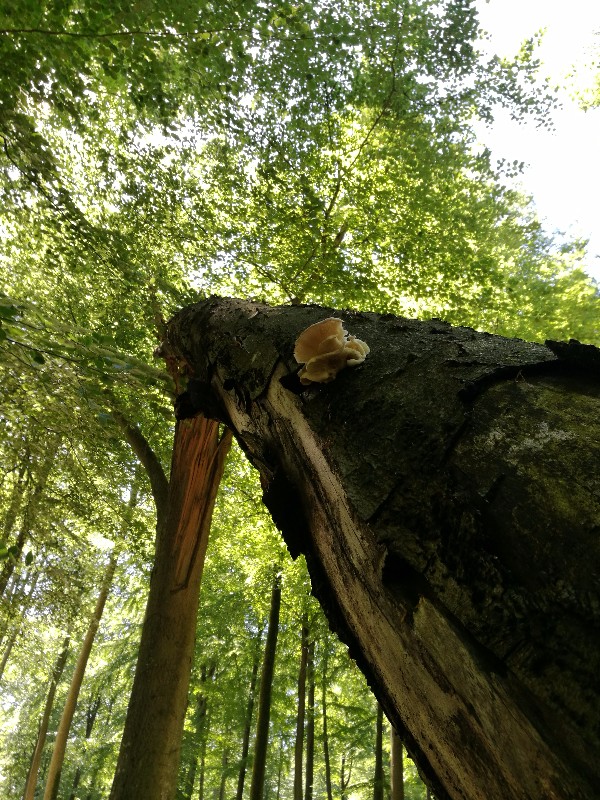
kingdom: Fungi
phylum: Basidiomycota
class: Agaricomycetes
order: Agaricales
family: Pleurotaceae
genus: Pleurotus
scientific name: Pleurotus pulmonarius
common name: sommer-østershat
